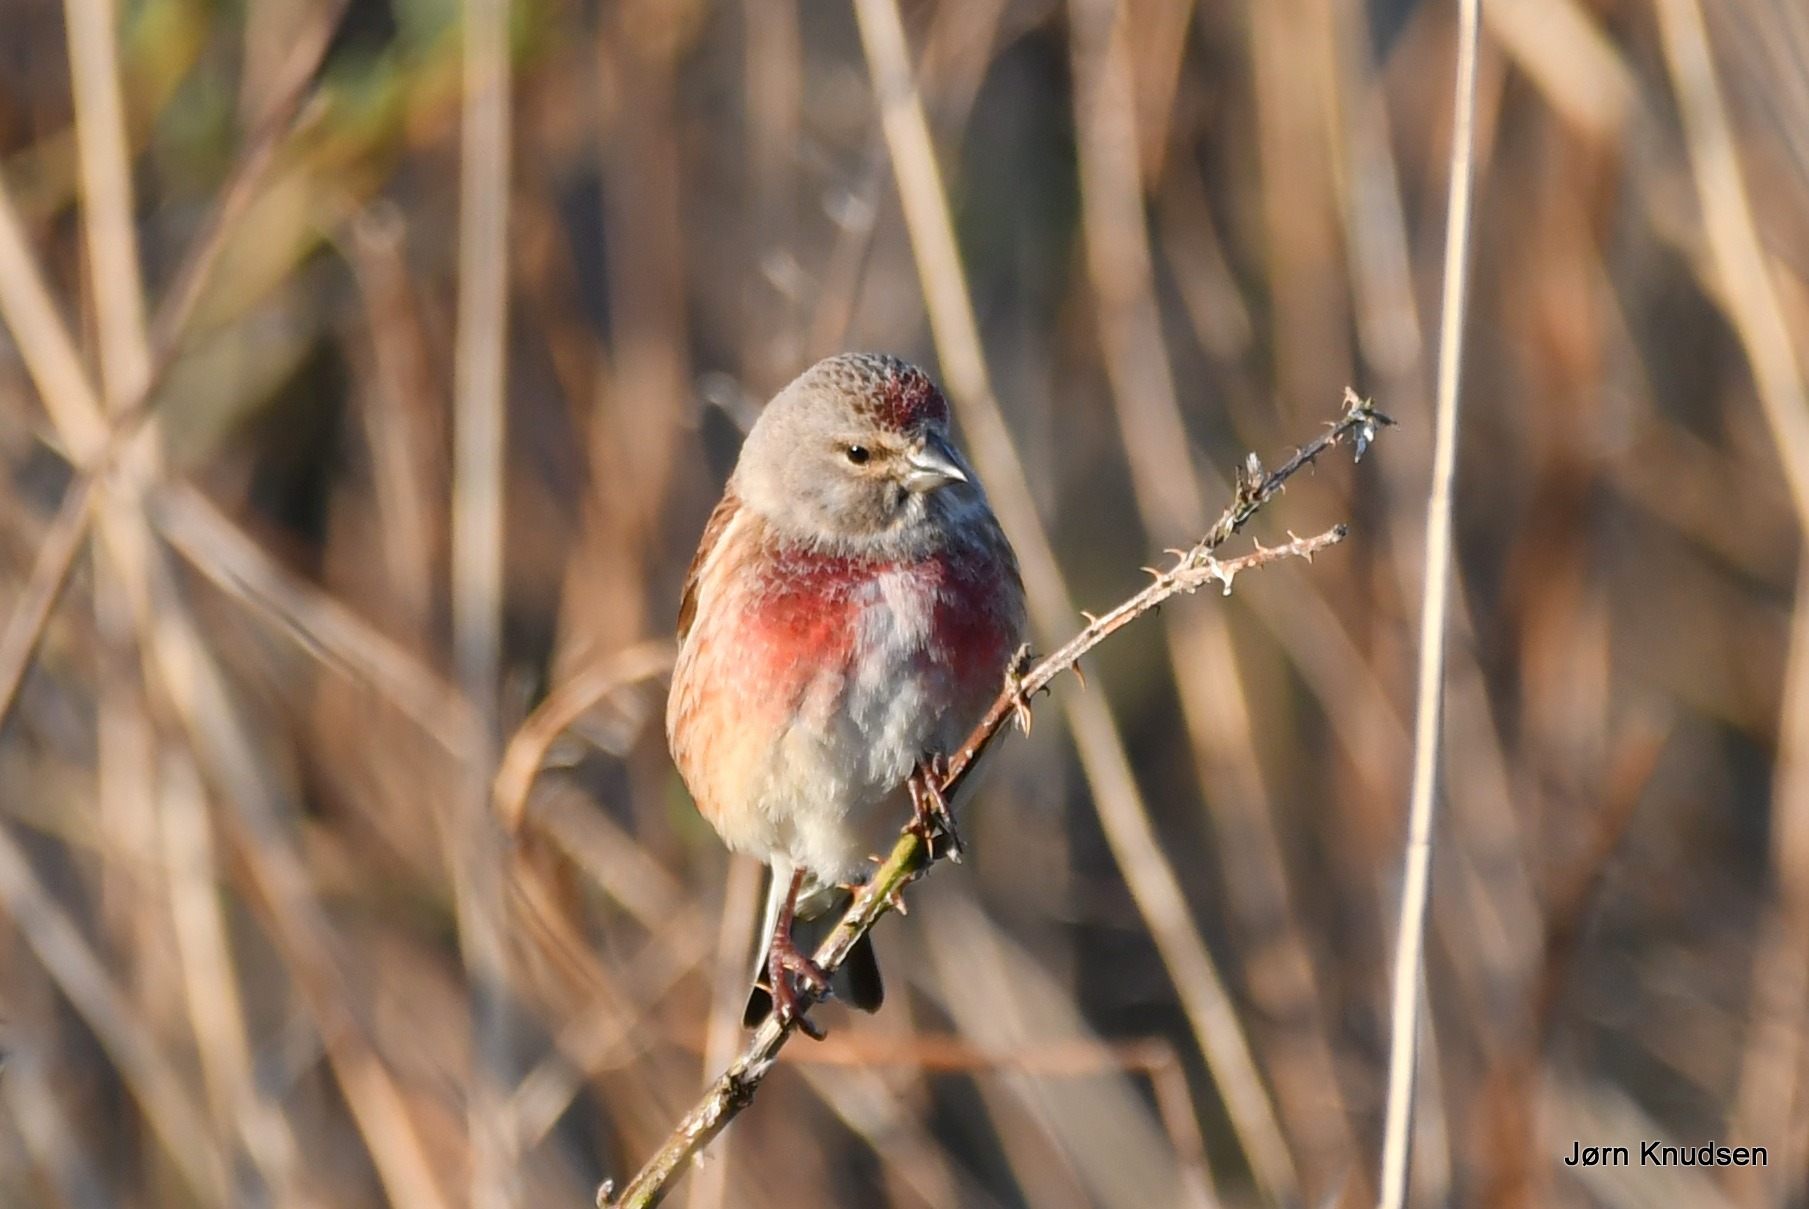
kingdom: Animalia
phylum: Chordata
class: Aves
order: Passeriformes
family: Fringillidae
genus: Linaria
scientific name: Linaria cannabina
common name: Tornirisk
